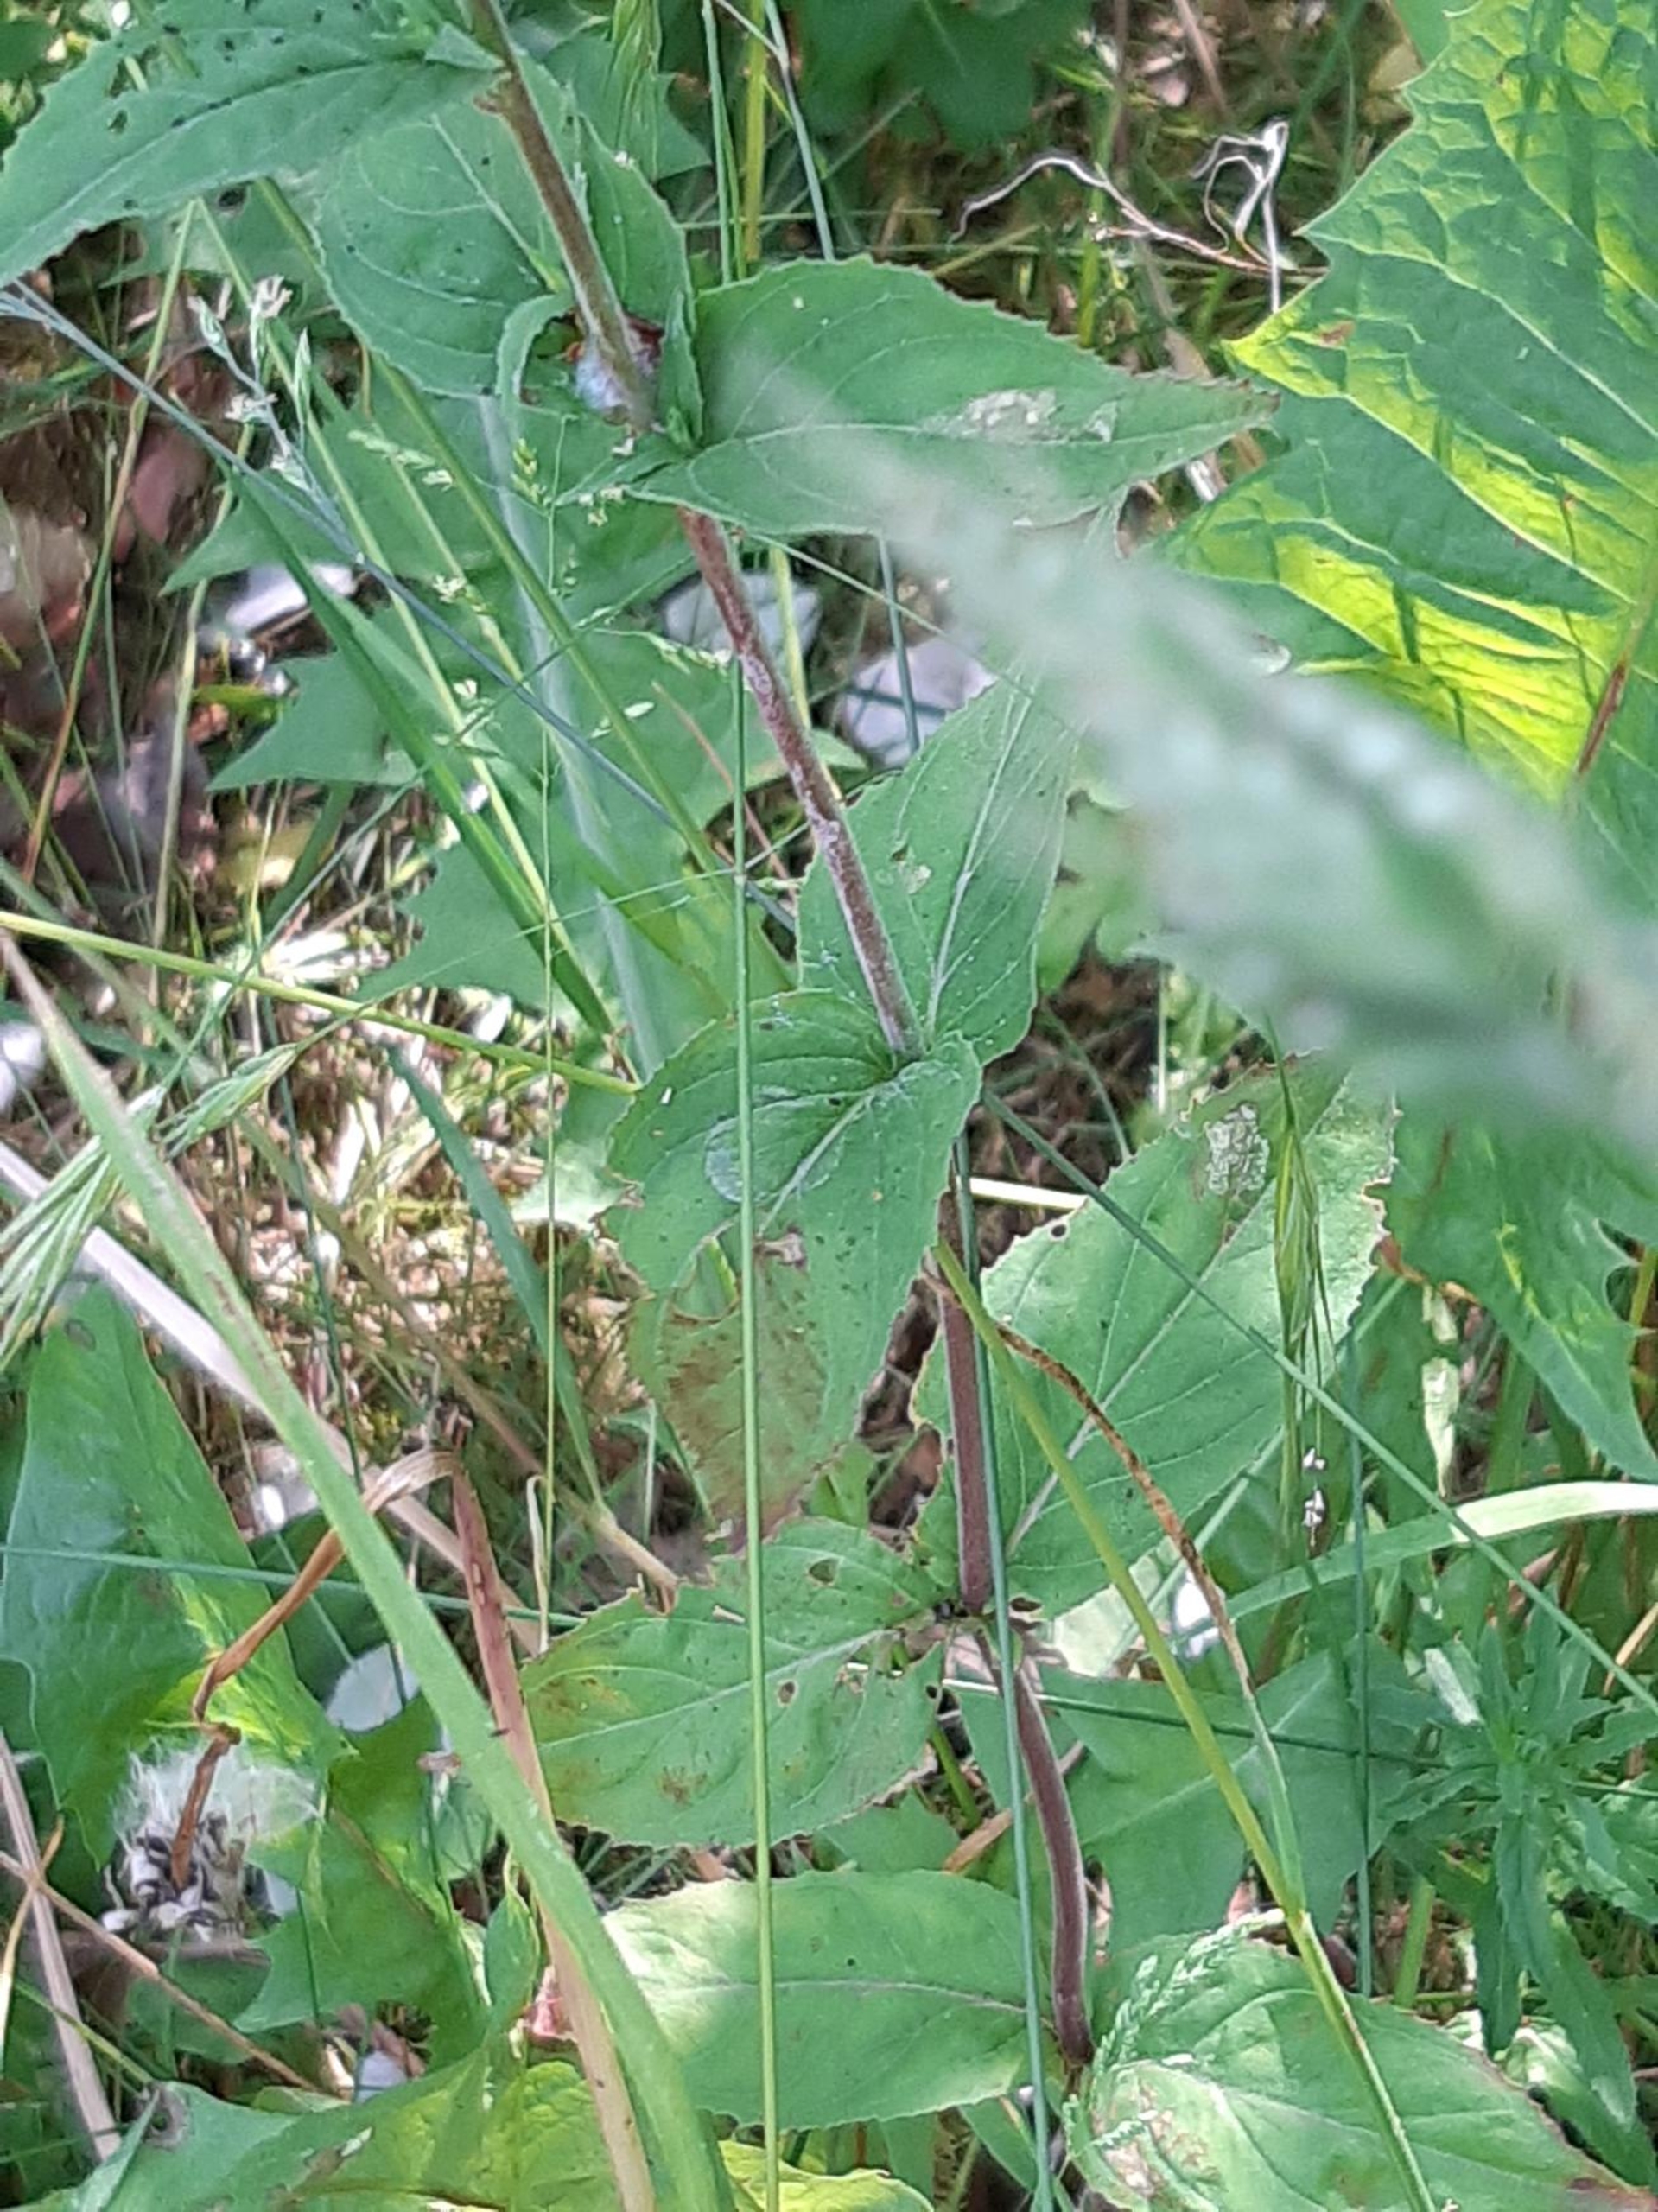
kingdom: Plantae
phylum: Tracheophyta
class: Magnoliopsida
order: Myrtales
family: Onagraceae
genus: Epilobium
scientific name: Epilobium montanum
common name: Glat dueurt
